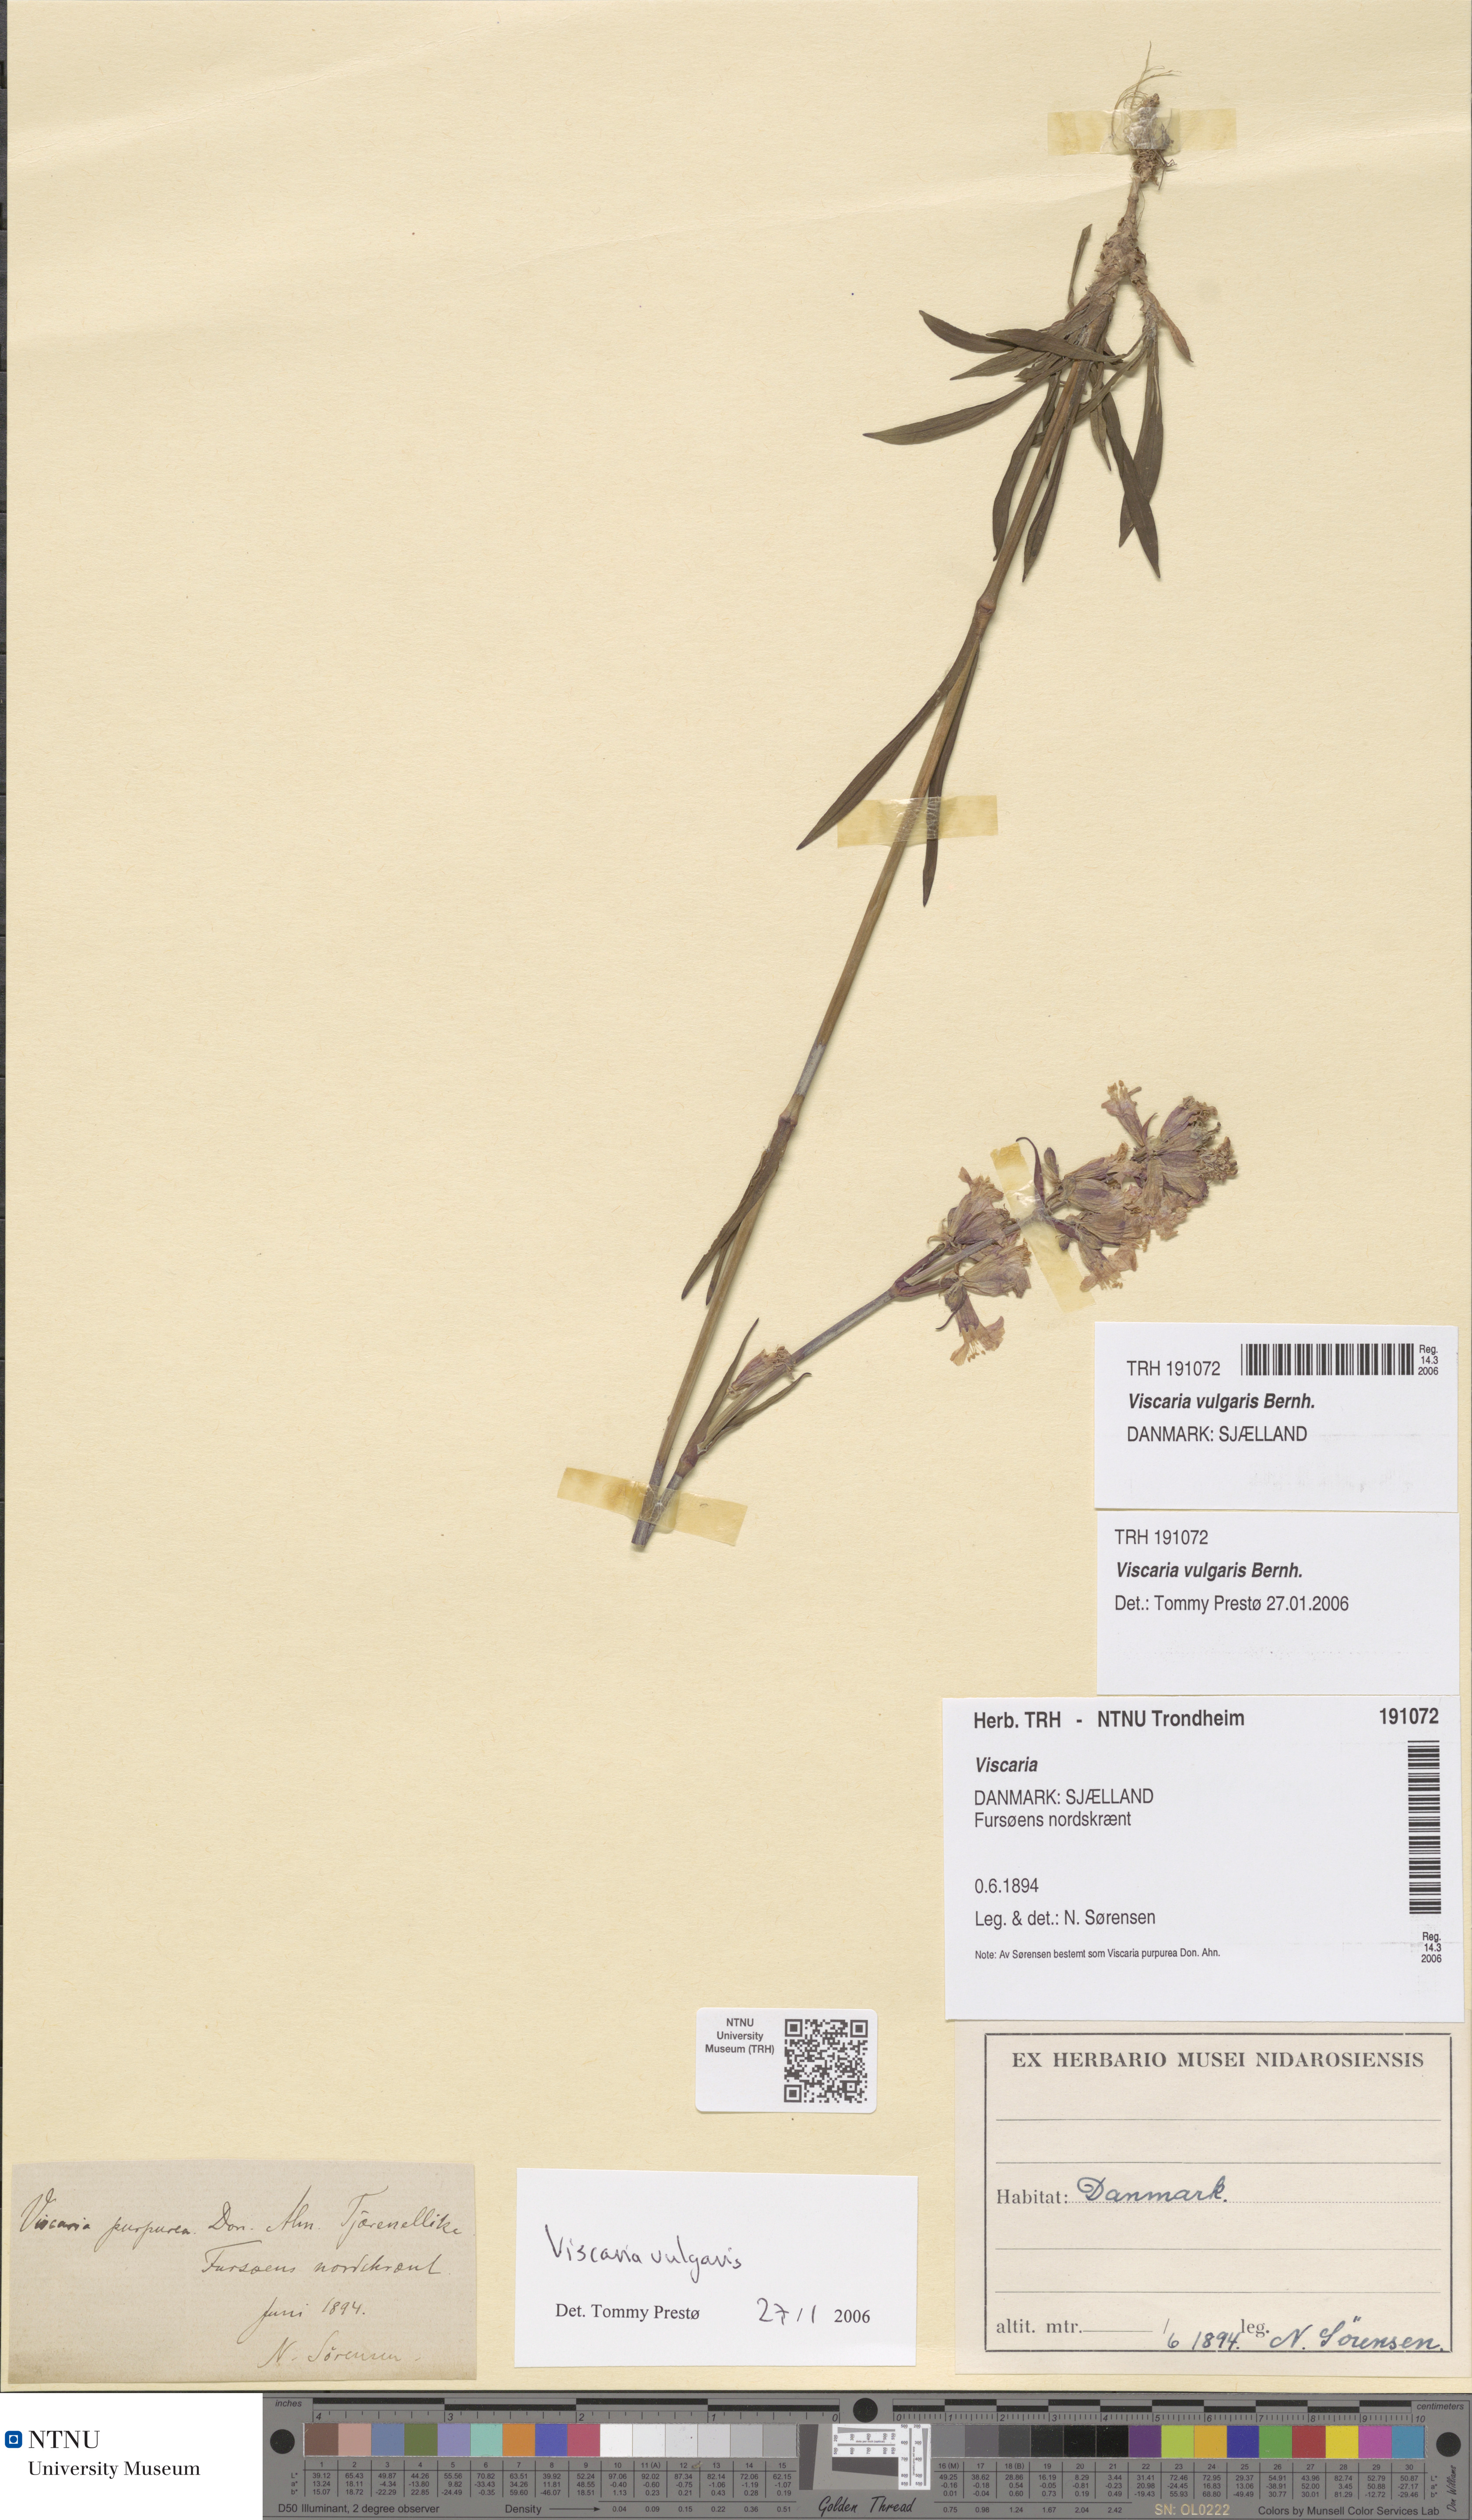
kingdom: Plantae
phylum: Tracheophyta
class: Magnoliopsida
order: Caryophyllales
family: Caryophyllaceae
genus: Viscaria
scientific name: Viscaria vulgaris
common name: Clammy campion
